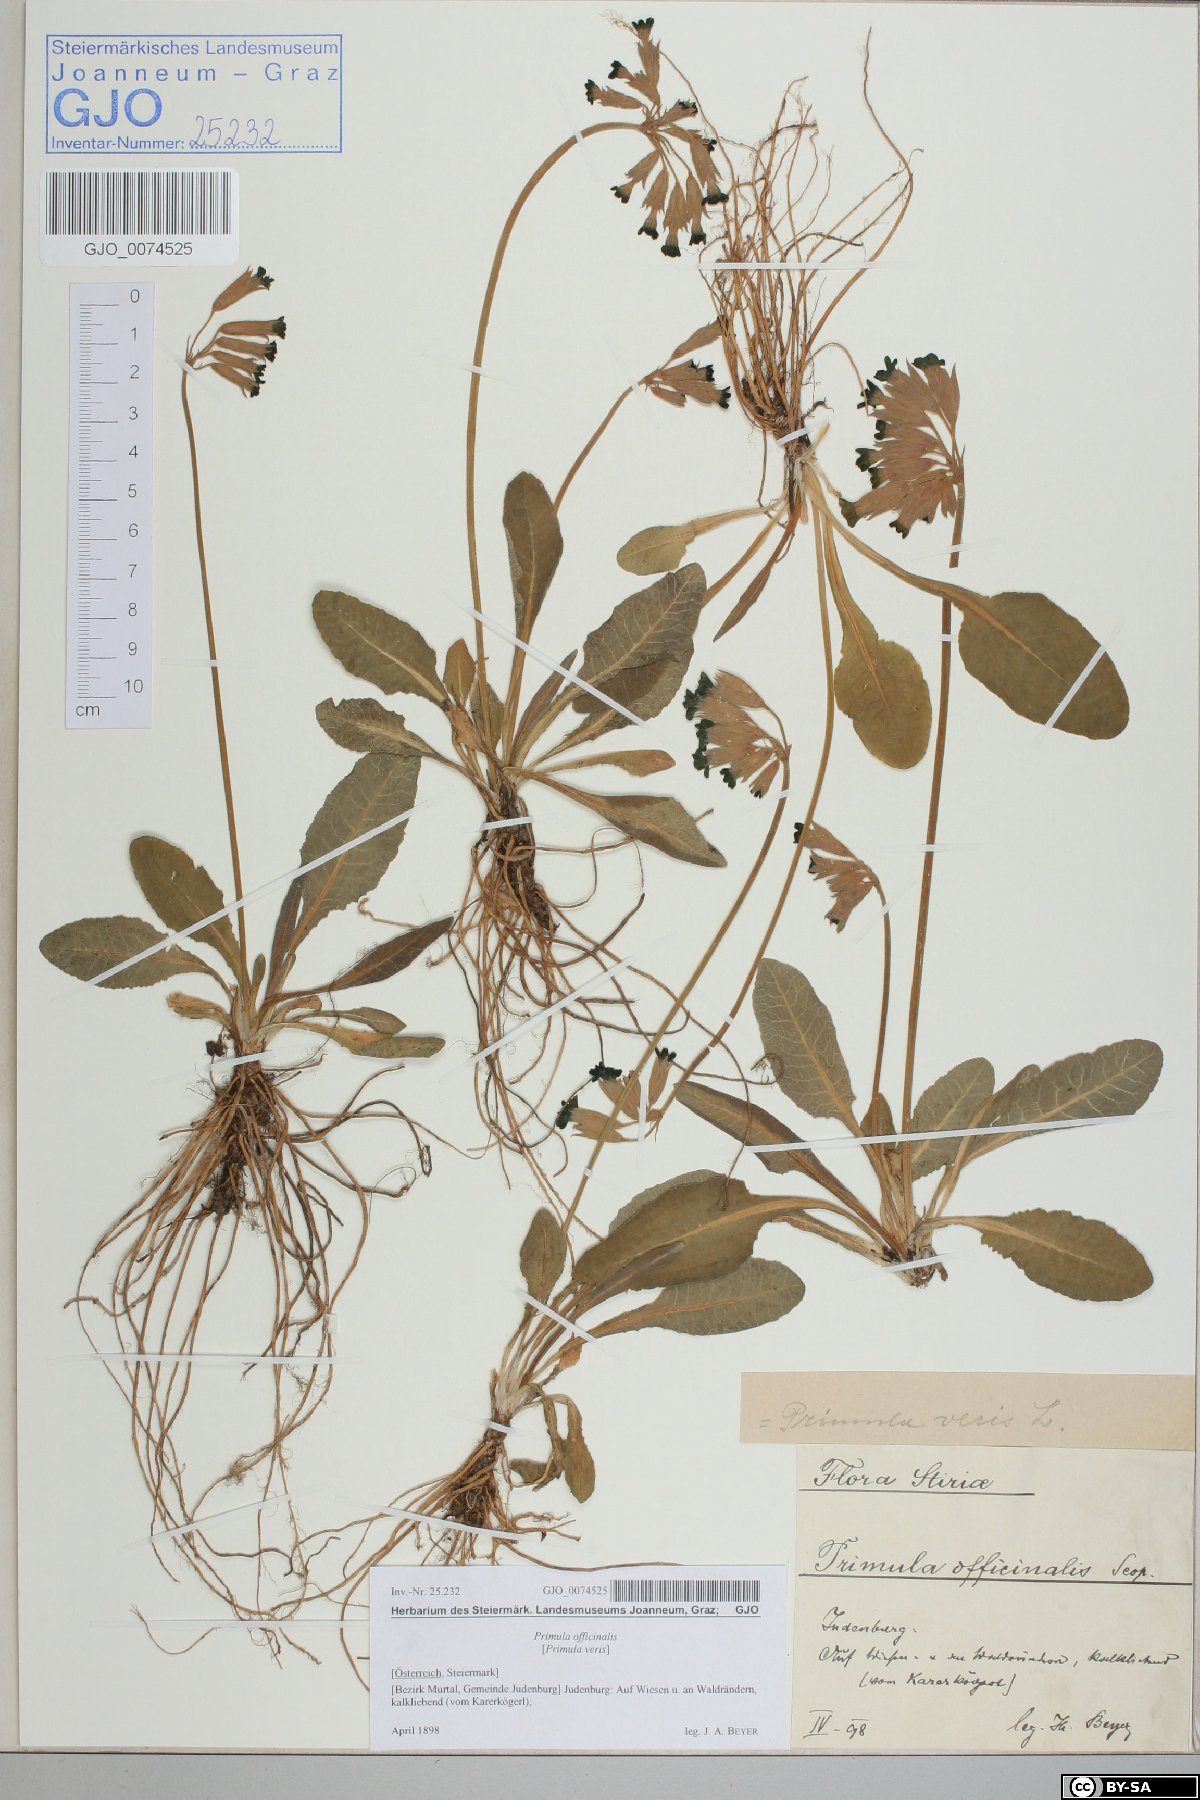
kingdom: Plantae
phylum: Tracheophyta
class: Magnoliopsida
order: Ericales
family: Primulaceae
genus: Primula
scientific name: Primula veris
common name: Cowslip
